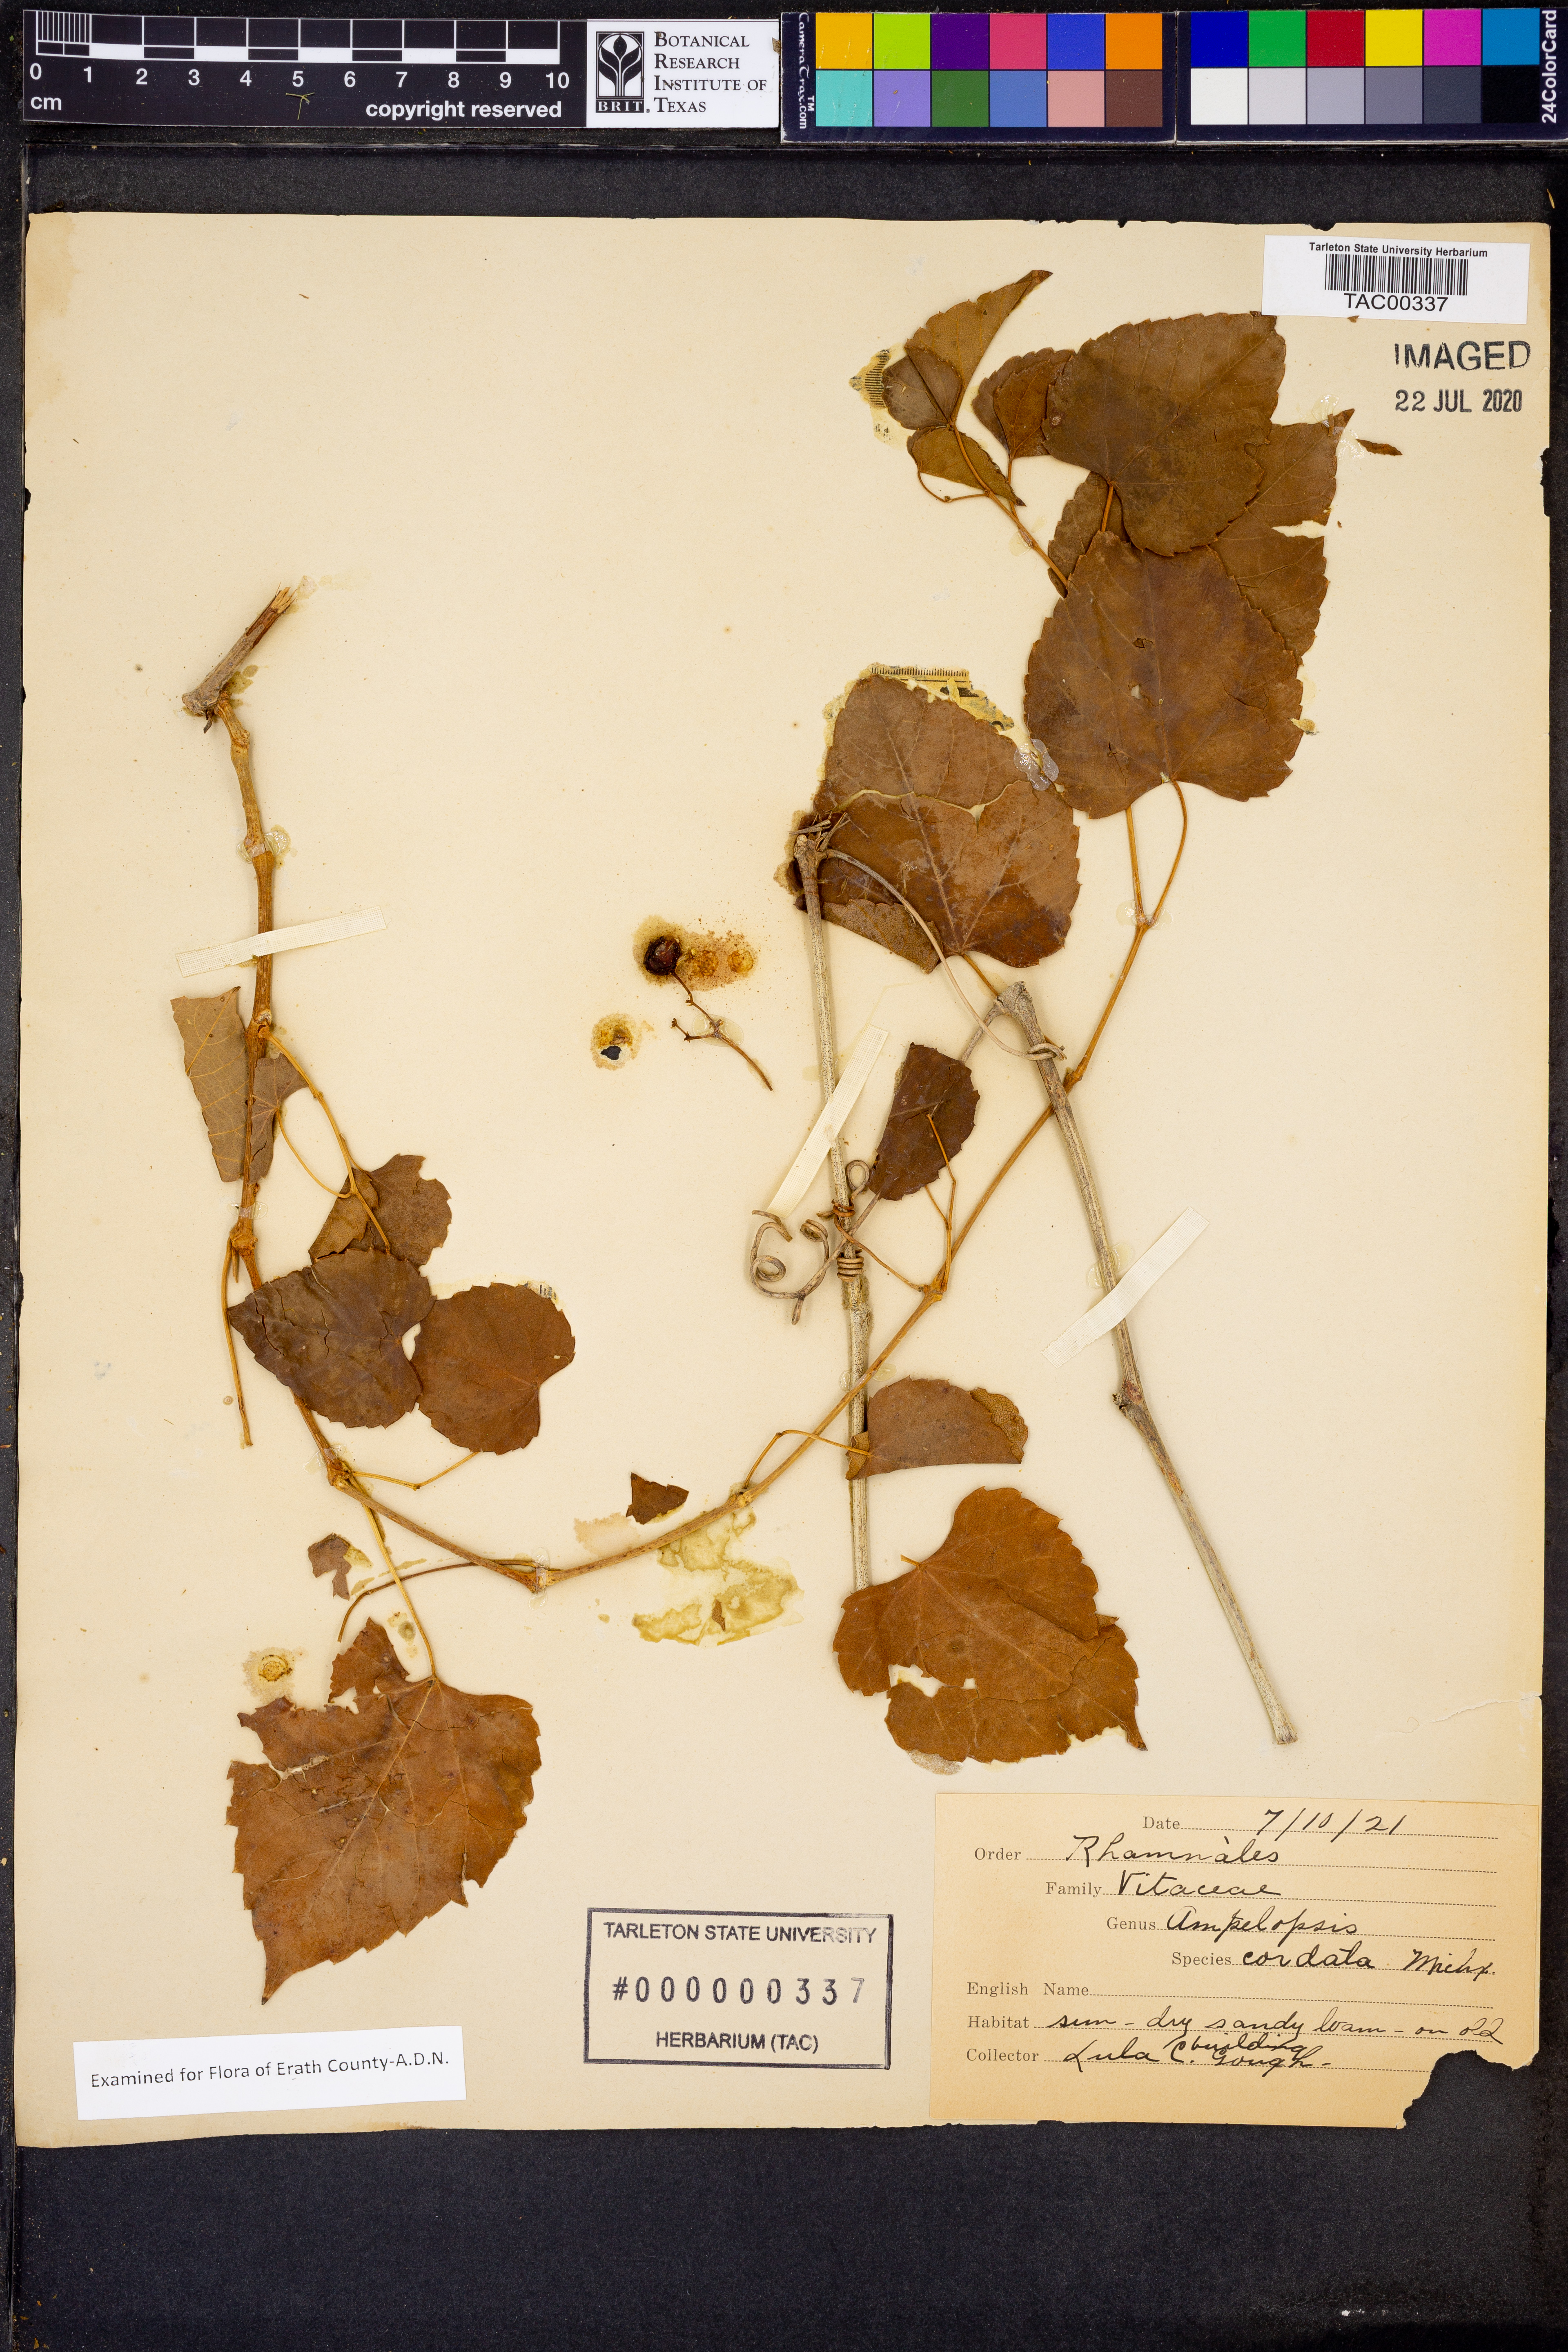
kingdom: Plantae
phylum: Tracheophyta
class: Magnoliopsida
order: Vitales
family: Vitaceae
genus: Ampelopsis
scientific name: Ampelopsis cordata
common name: Heart-leaf ampelopsis
